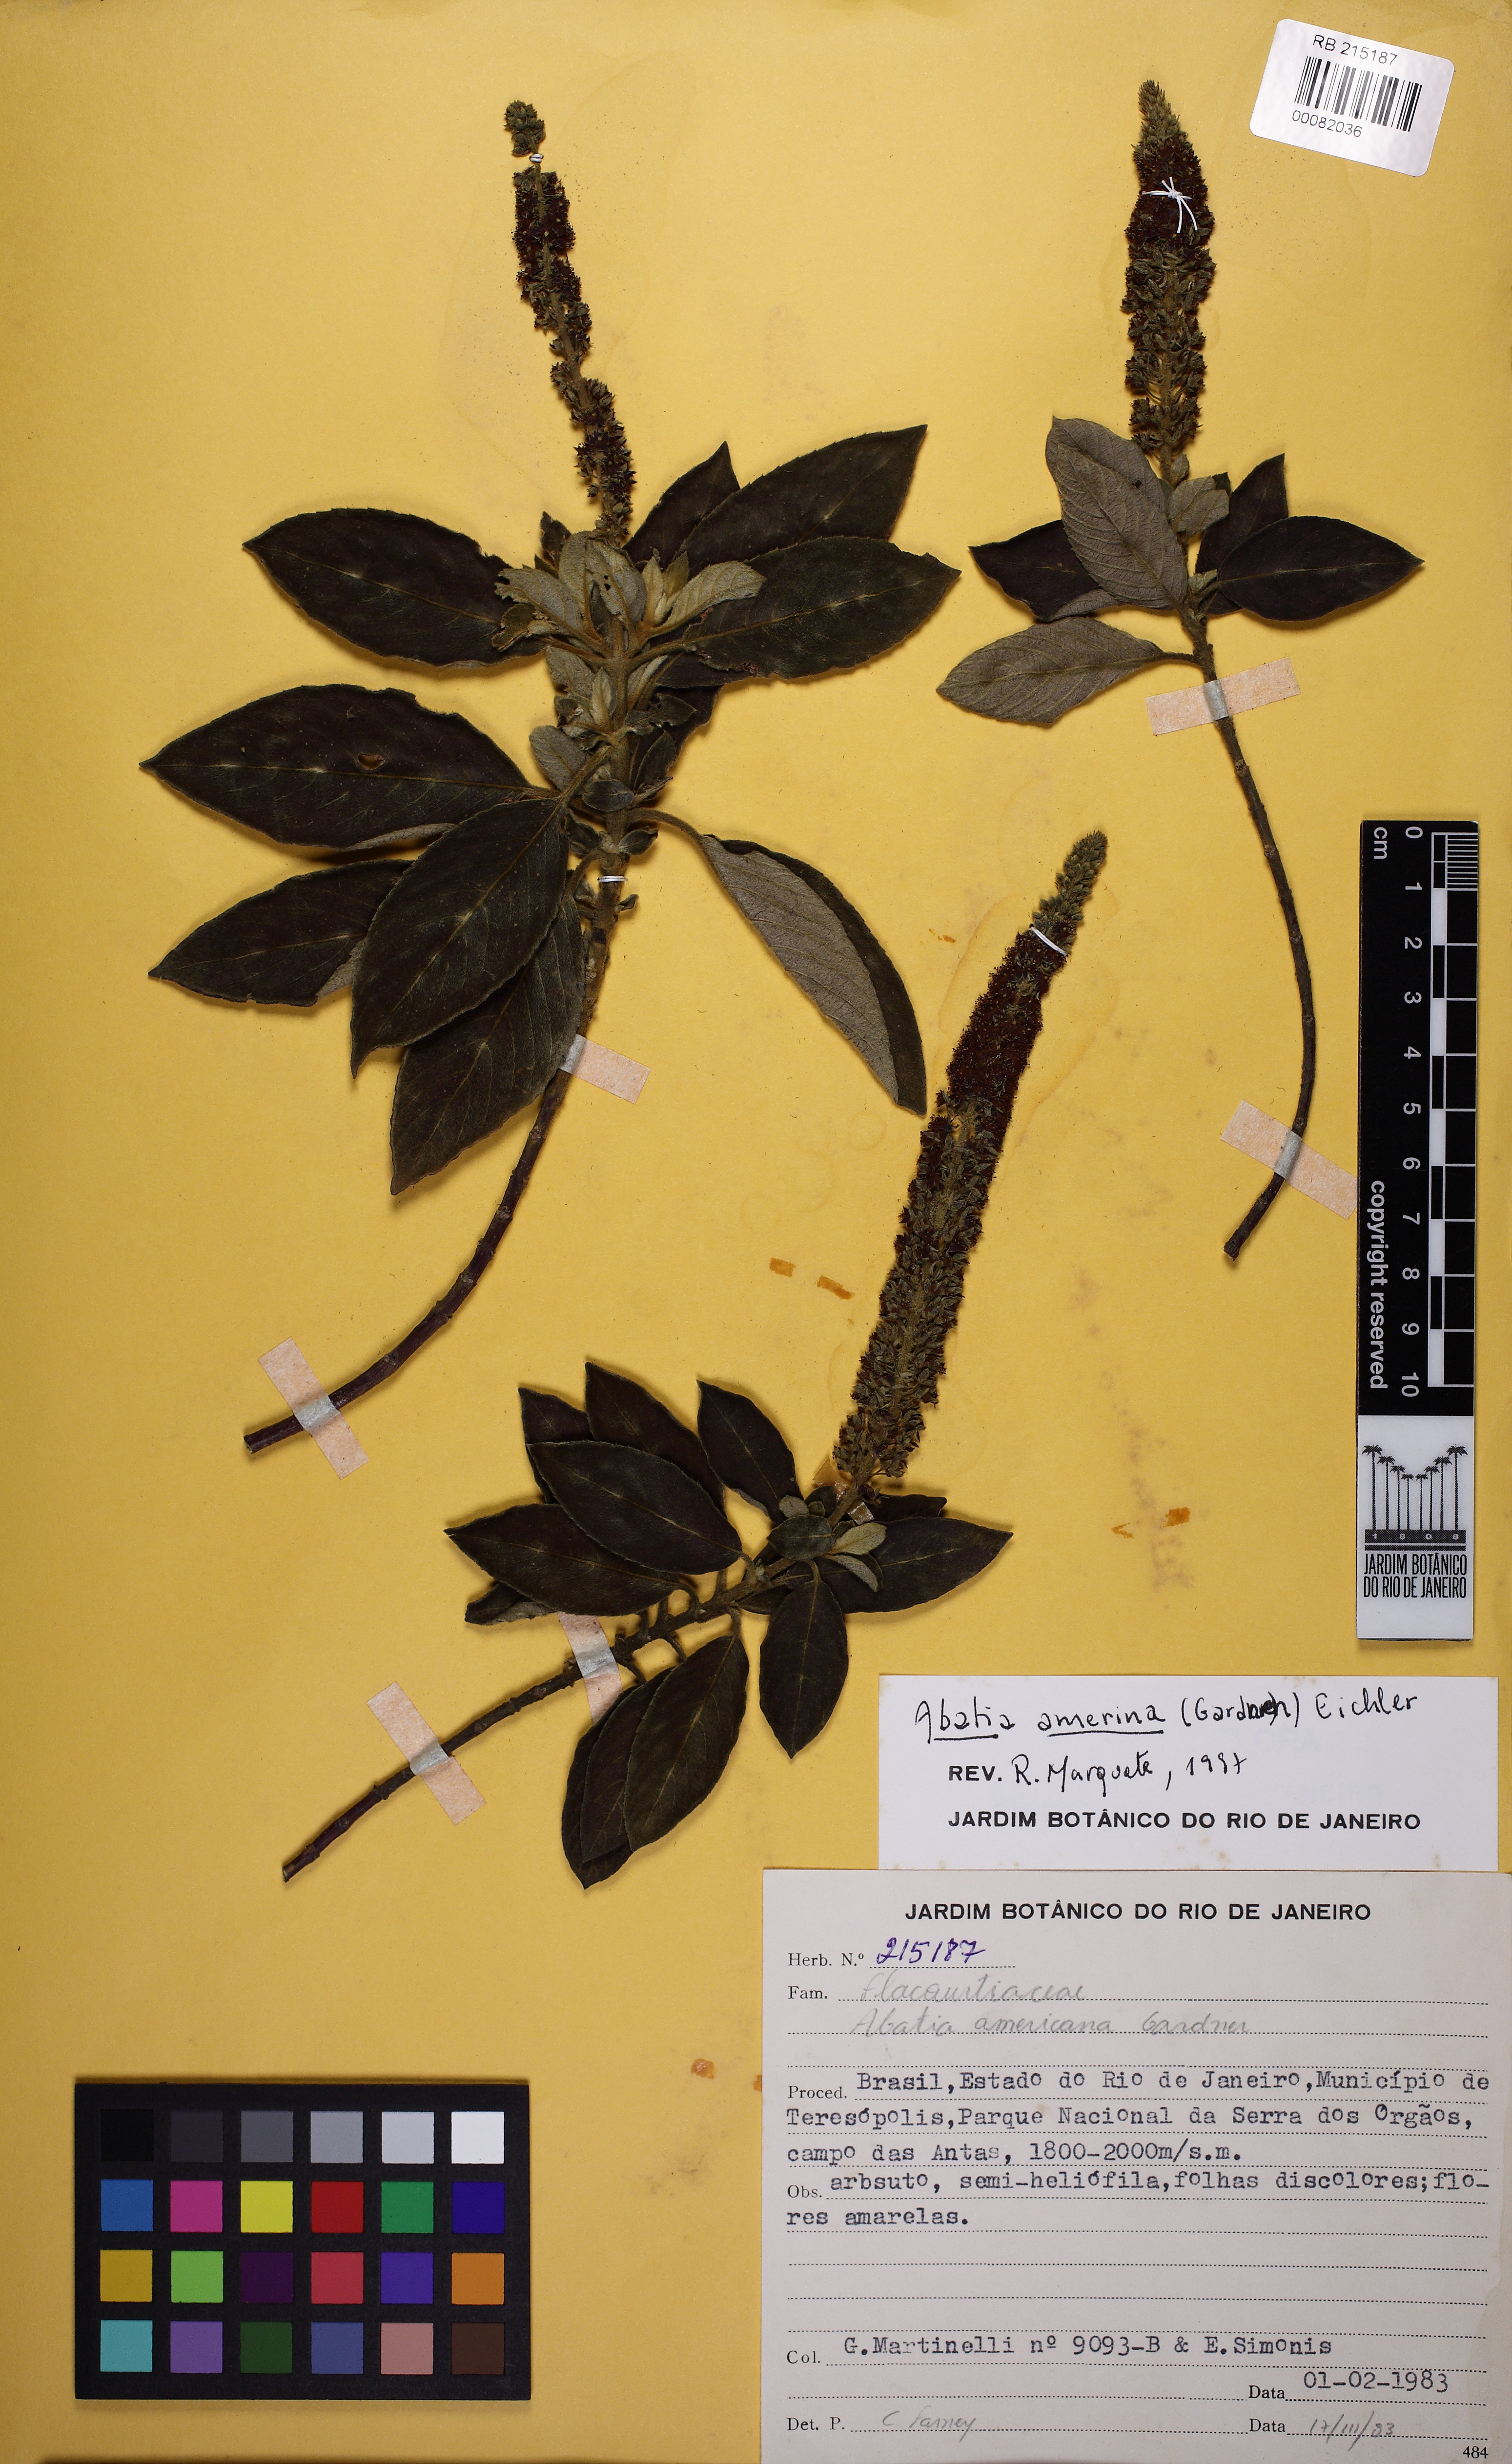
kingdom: Plantae
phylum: Tracheophyta
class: Magnoliopsida
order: Malpighiales
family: Salicaceae
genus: Abatia
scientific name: Abatia americana
